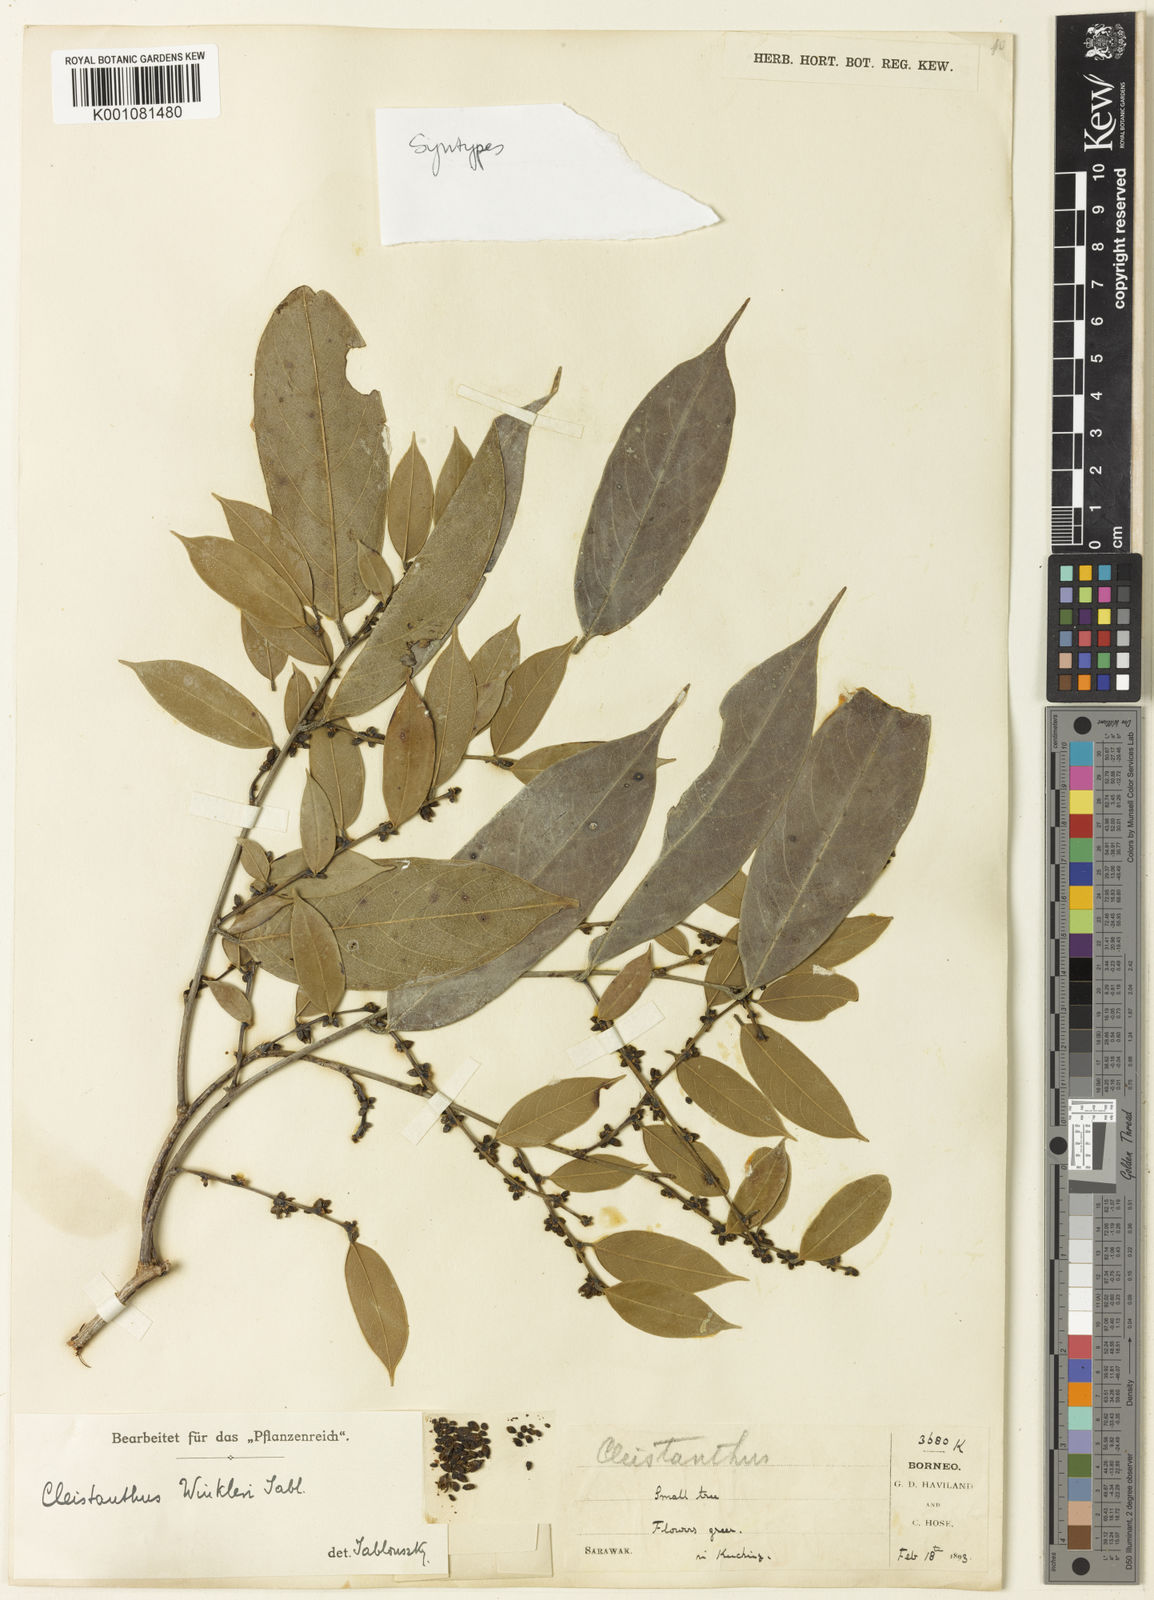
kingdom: Plantae
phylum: Tracheophyta
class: Magnoliopsida
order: Malpighiales
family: Phyllanthaceae
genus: Cleistanthus
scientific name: Cleistanthus winkleri
